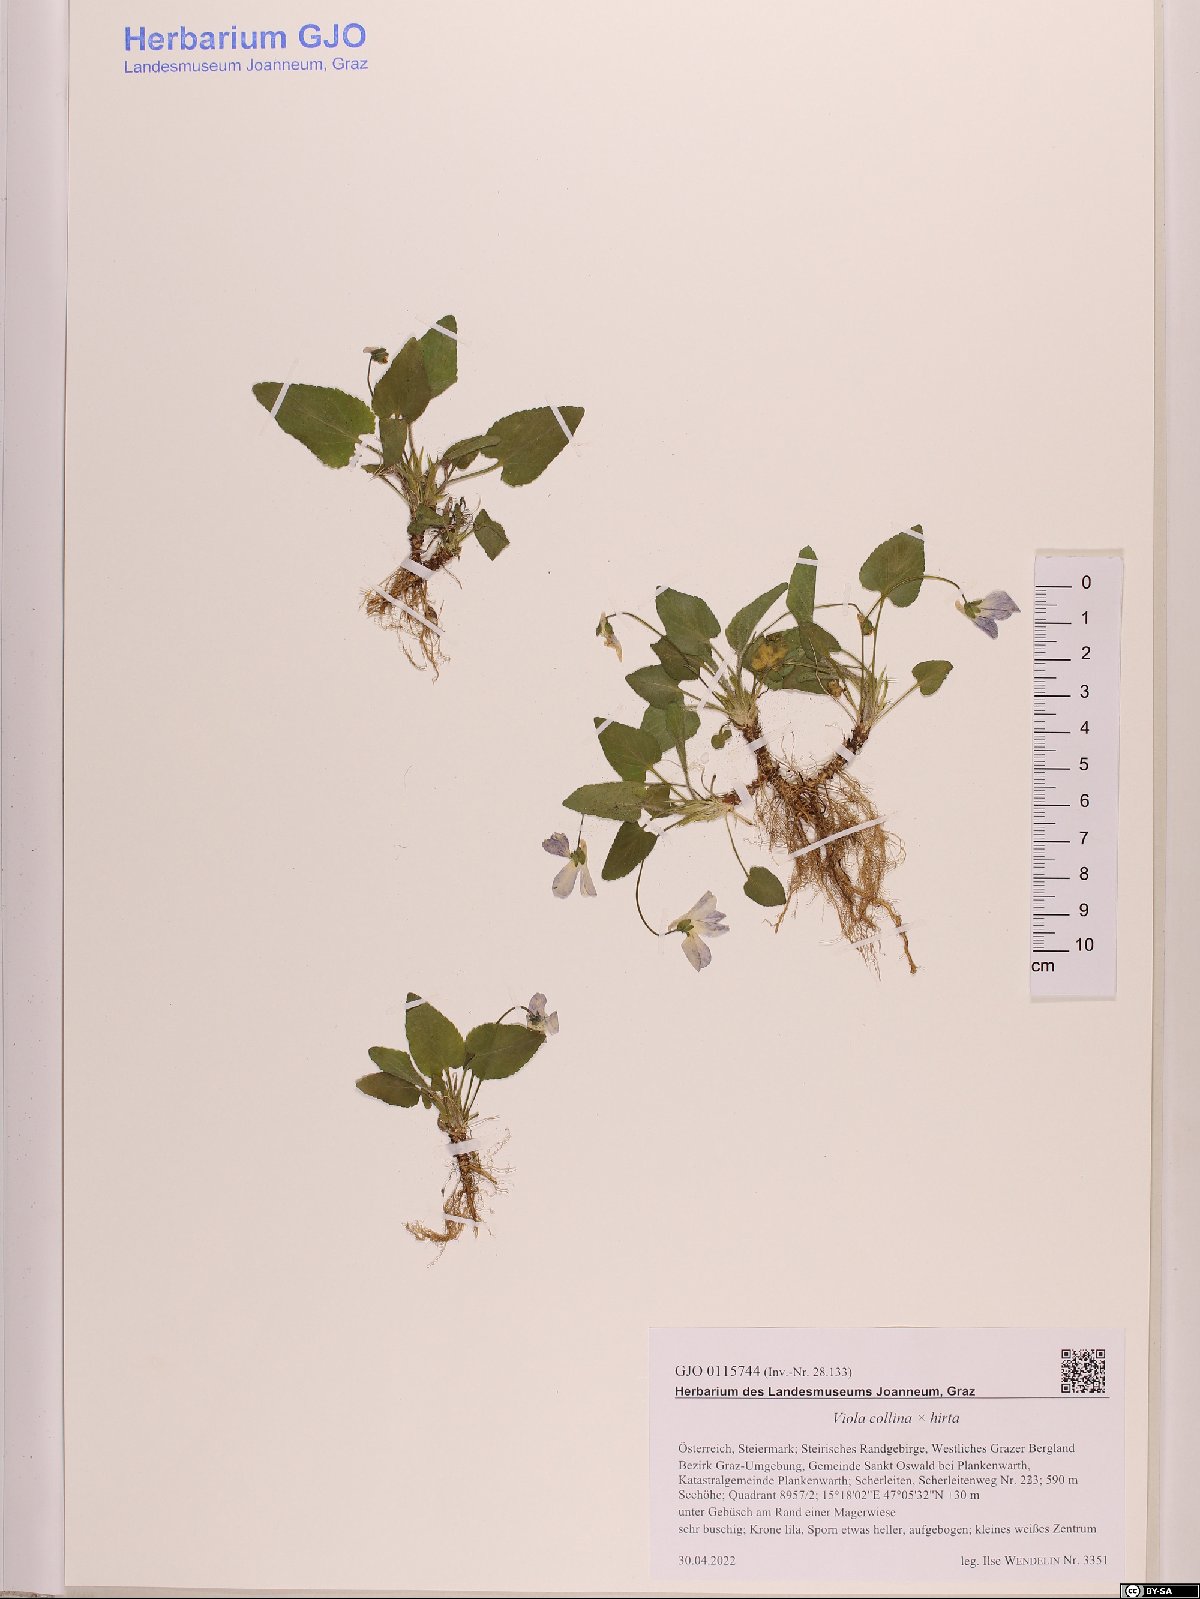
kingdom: Plantae
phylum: Tracheophyta
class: Magnoliopsida
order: Malpighiales
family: Violaceae
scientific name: Violaceae
